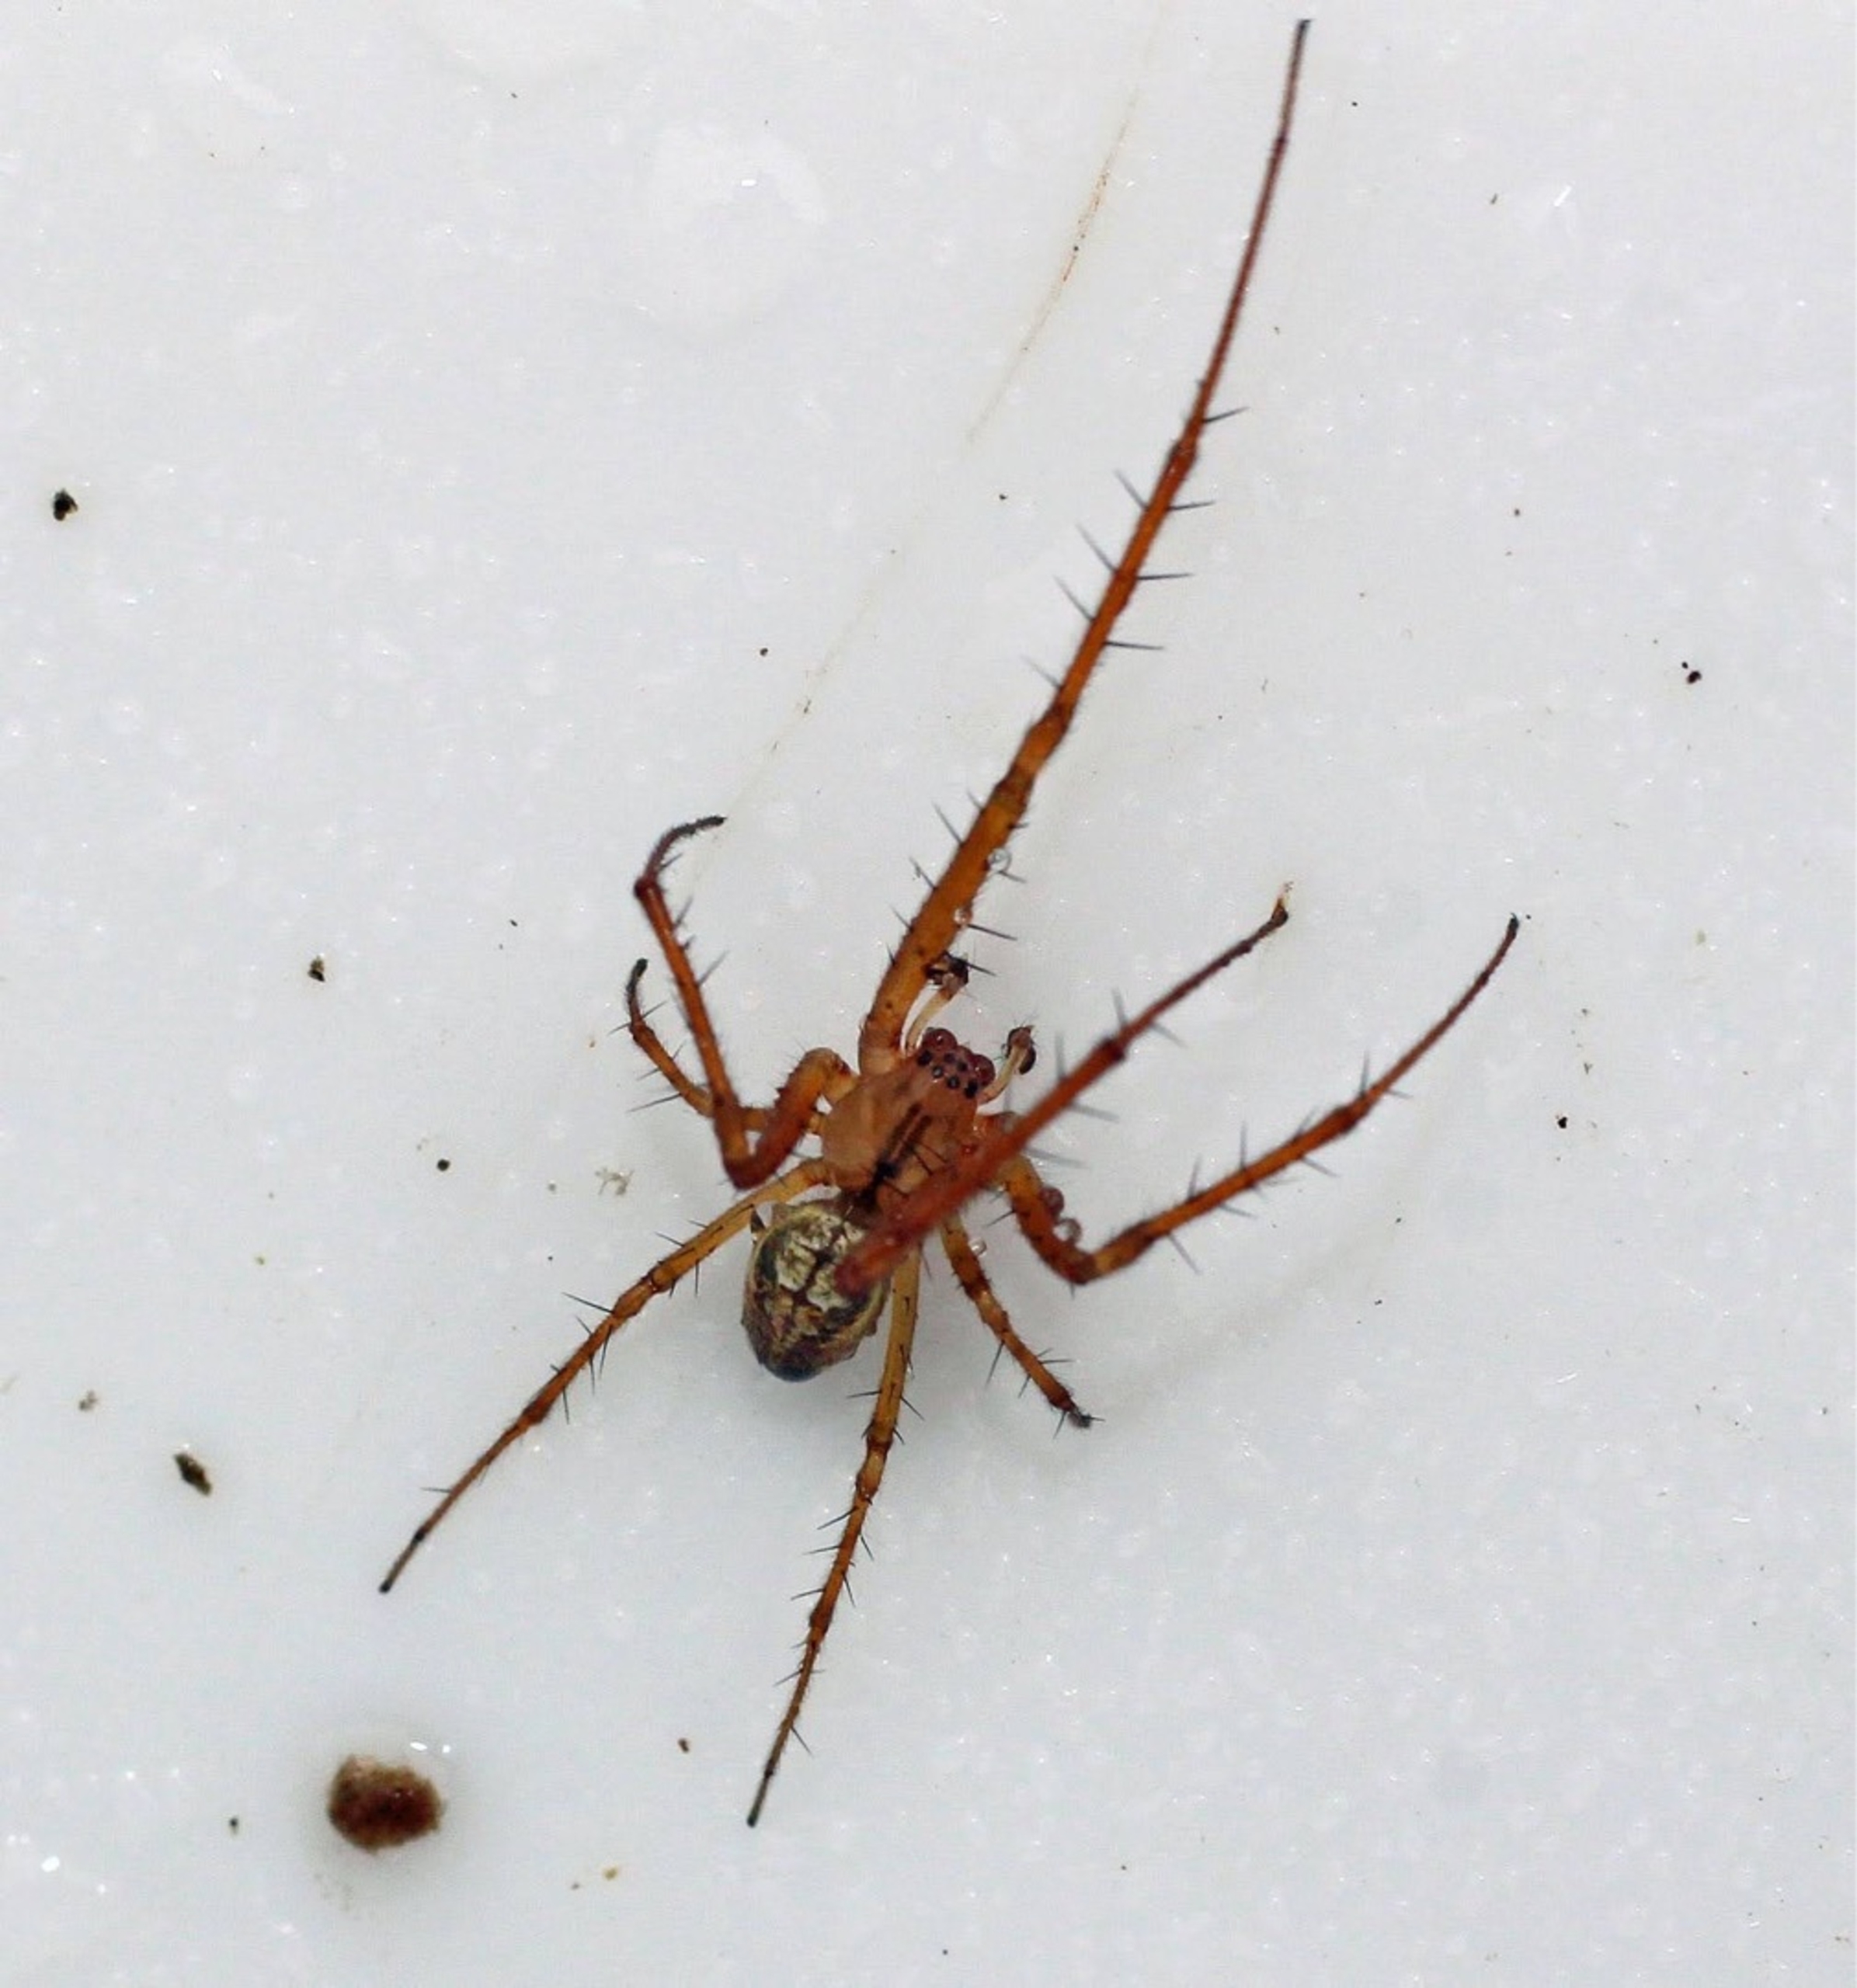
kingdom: Animalia
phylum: Arthropoda
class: Arachnida
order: Araneae
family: Tetragnathidae
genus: Metellina
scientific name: Metellina
